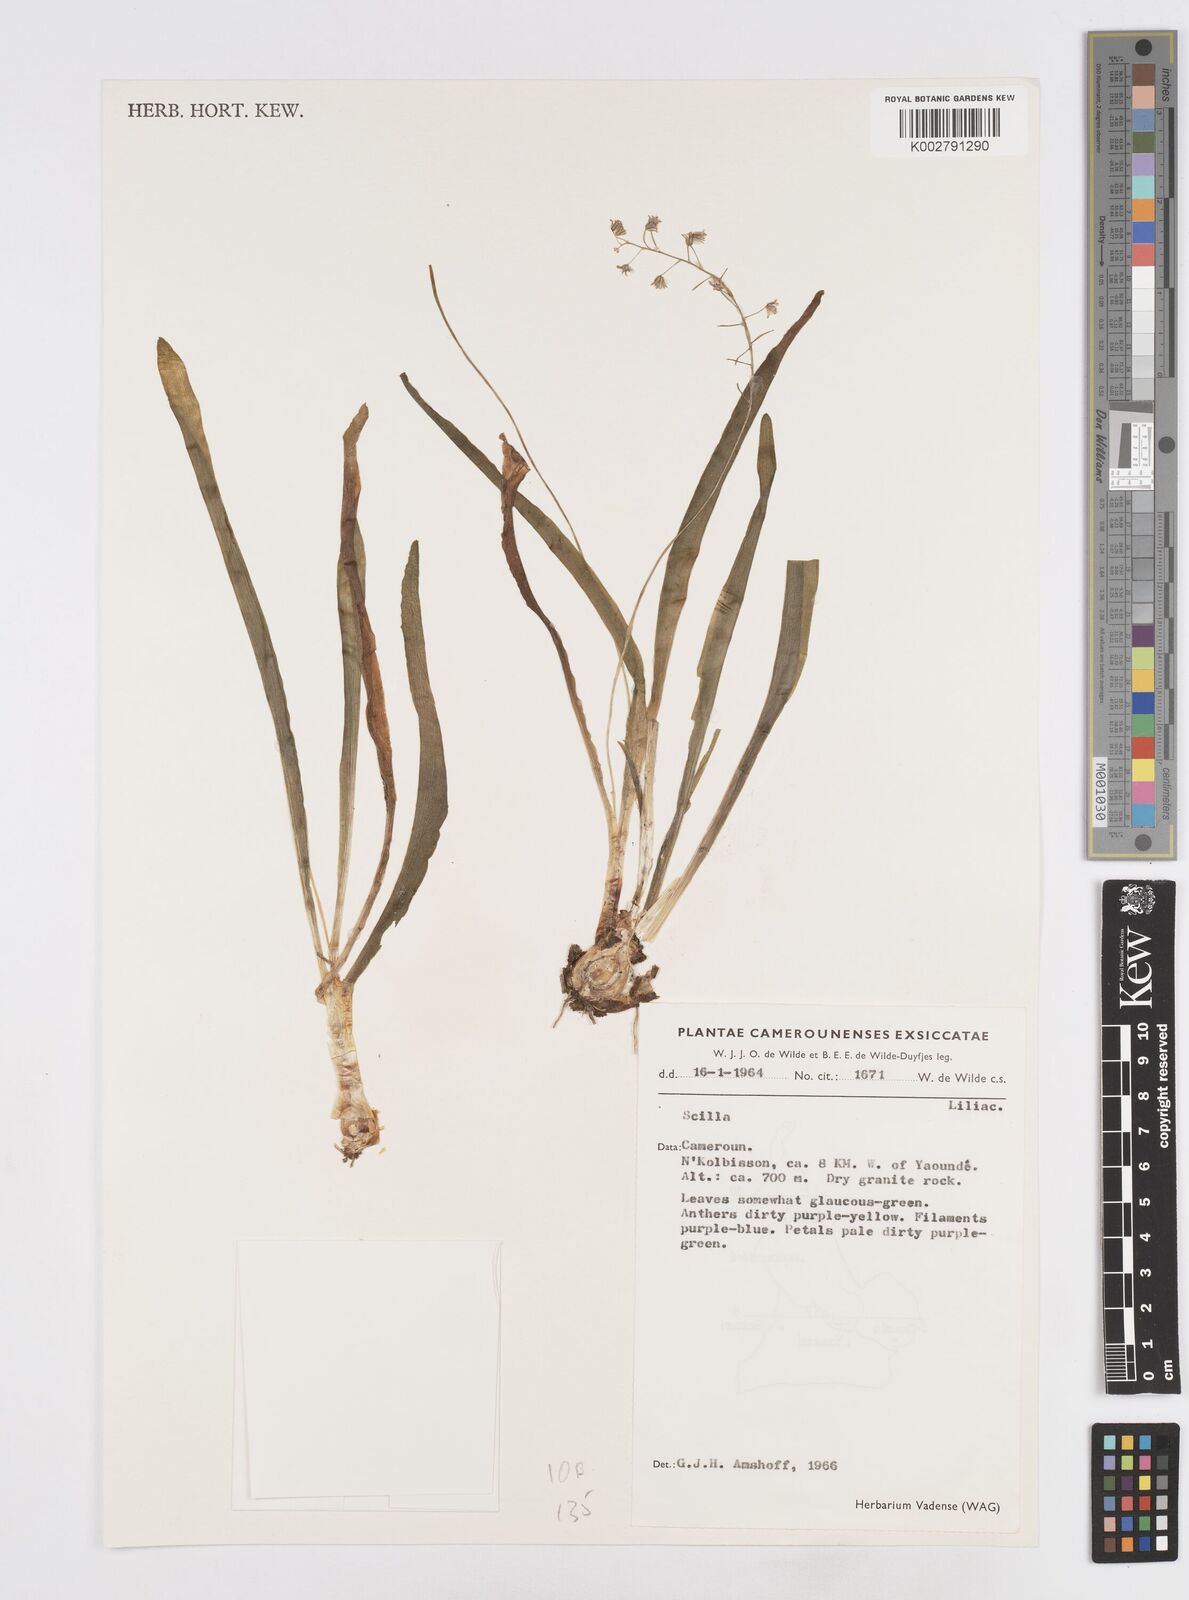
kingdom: Plantae
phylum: Tracheophyta
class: Liliopsida
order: Asparagales
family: Asparagaceae
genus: Scilla
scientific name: Scilla
